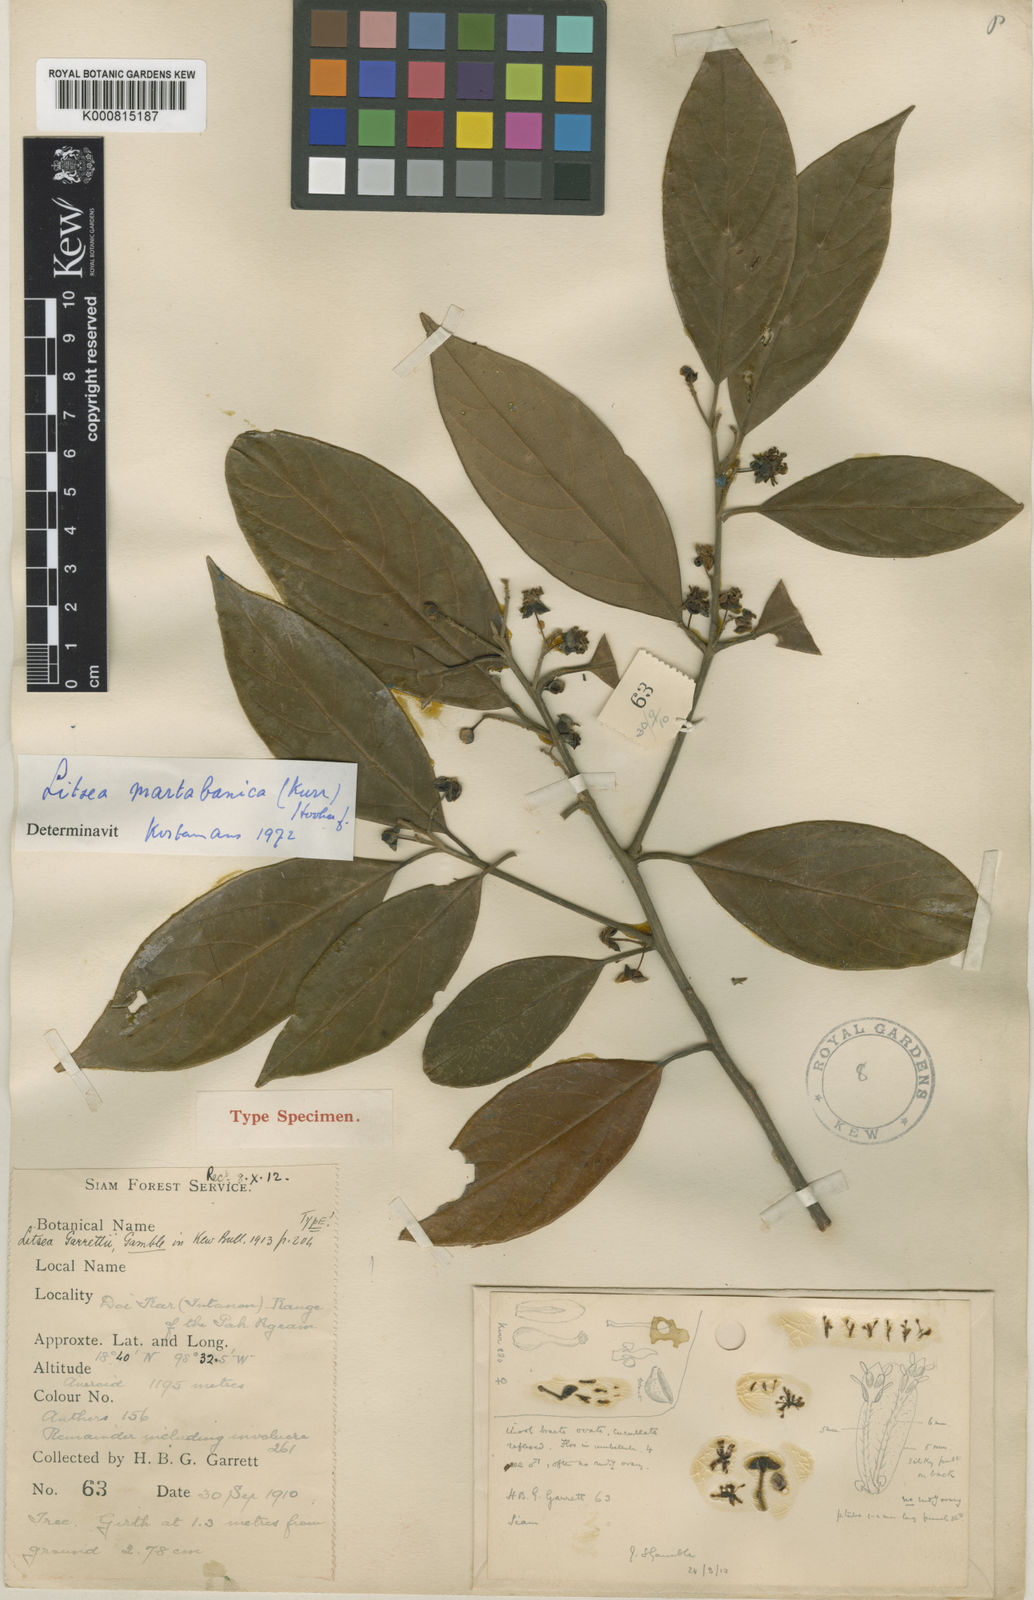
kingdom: Plantae
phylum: Tracheophyta
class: Magnoliopsida
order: Laurales
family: Lauraceae
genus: Litsea
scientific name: Litsea martabanica
